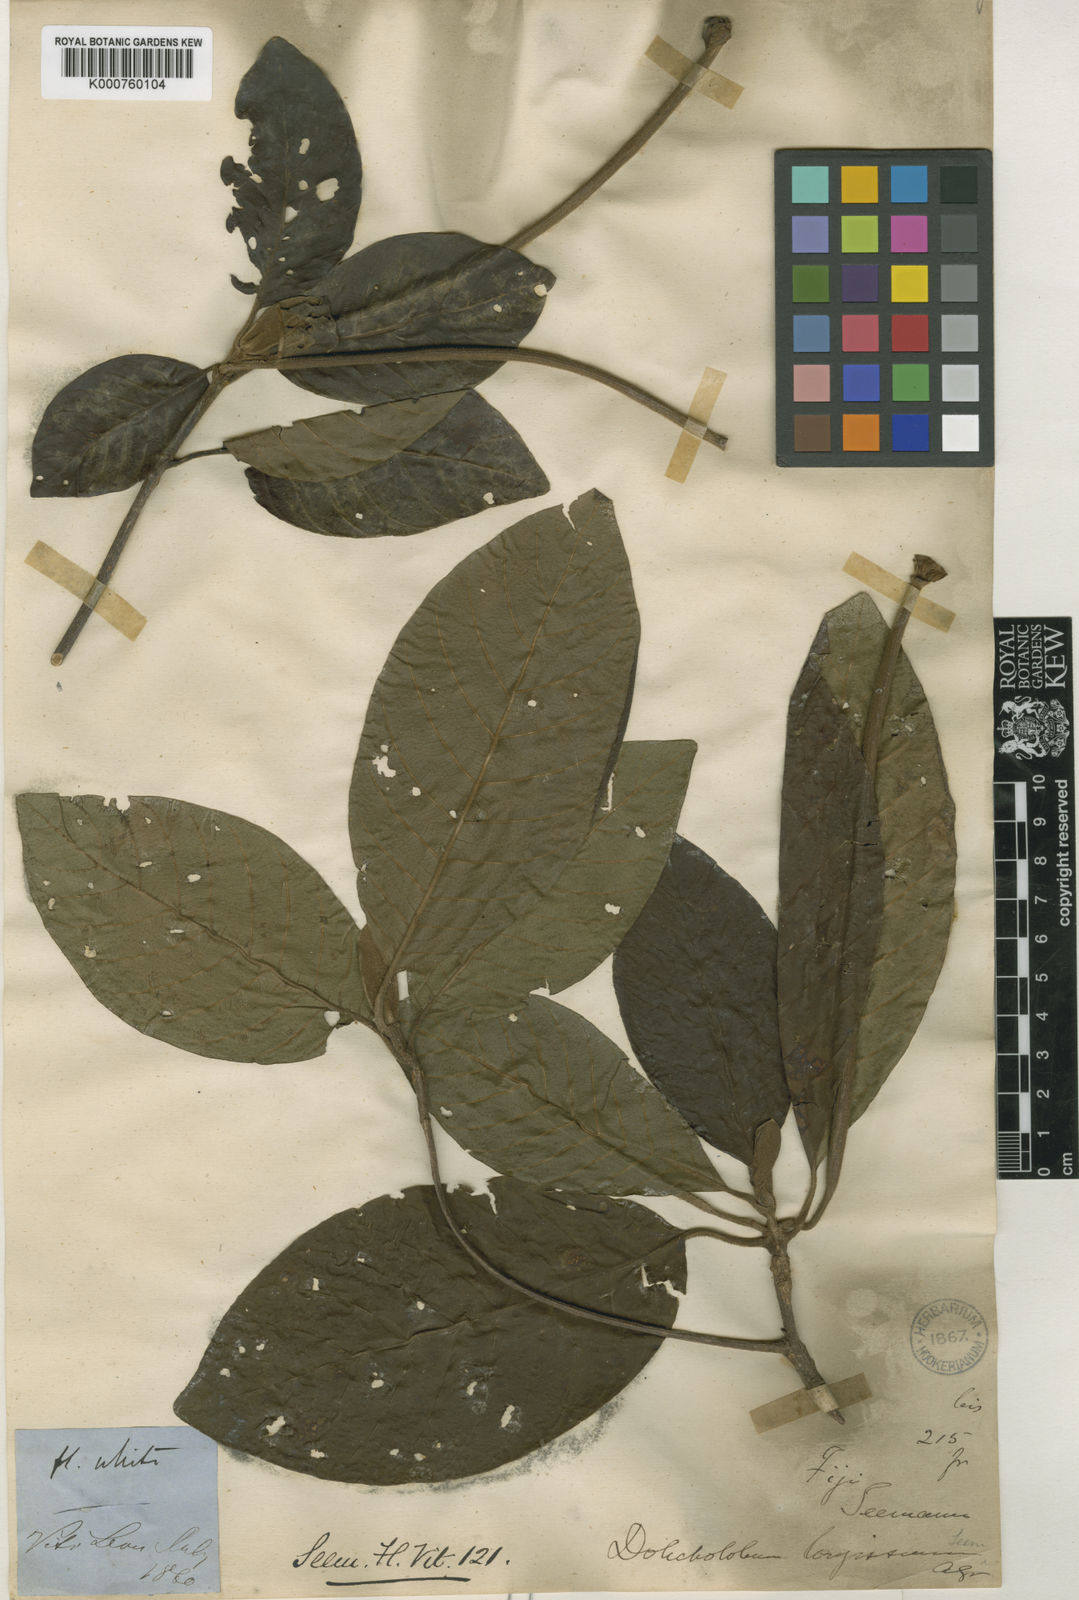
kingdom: Plantae
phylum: Tracheophyta
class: Magnoliopsida
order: Gentianales
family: Rubiaceae
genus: Dolicholobium
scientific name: Dolicholobium oblongifolium
